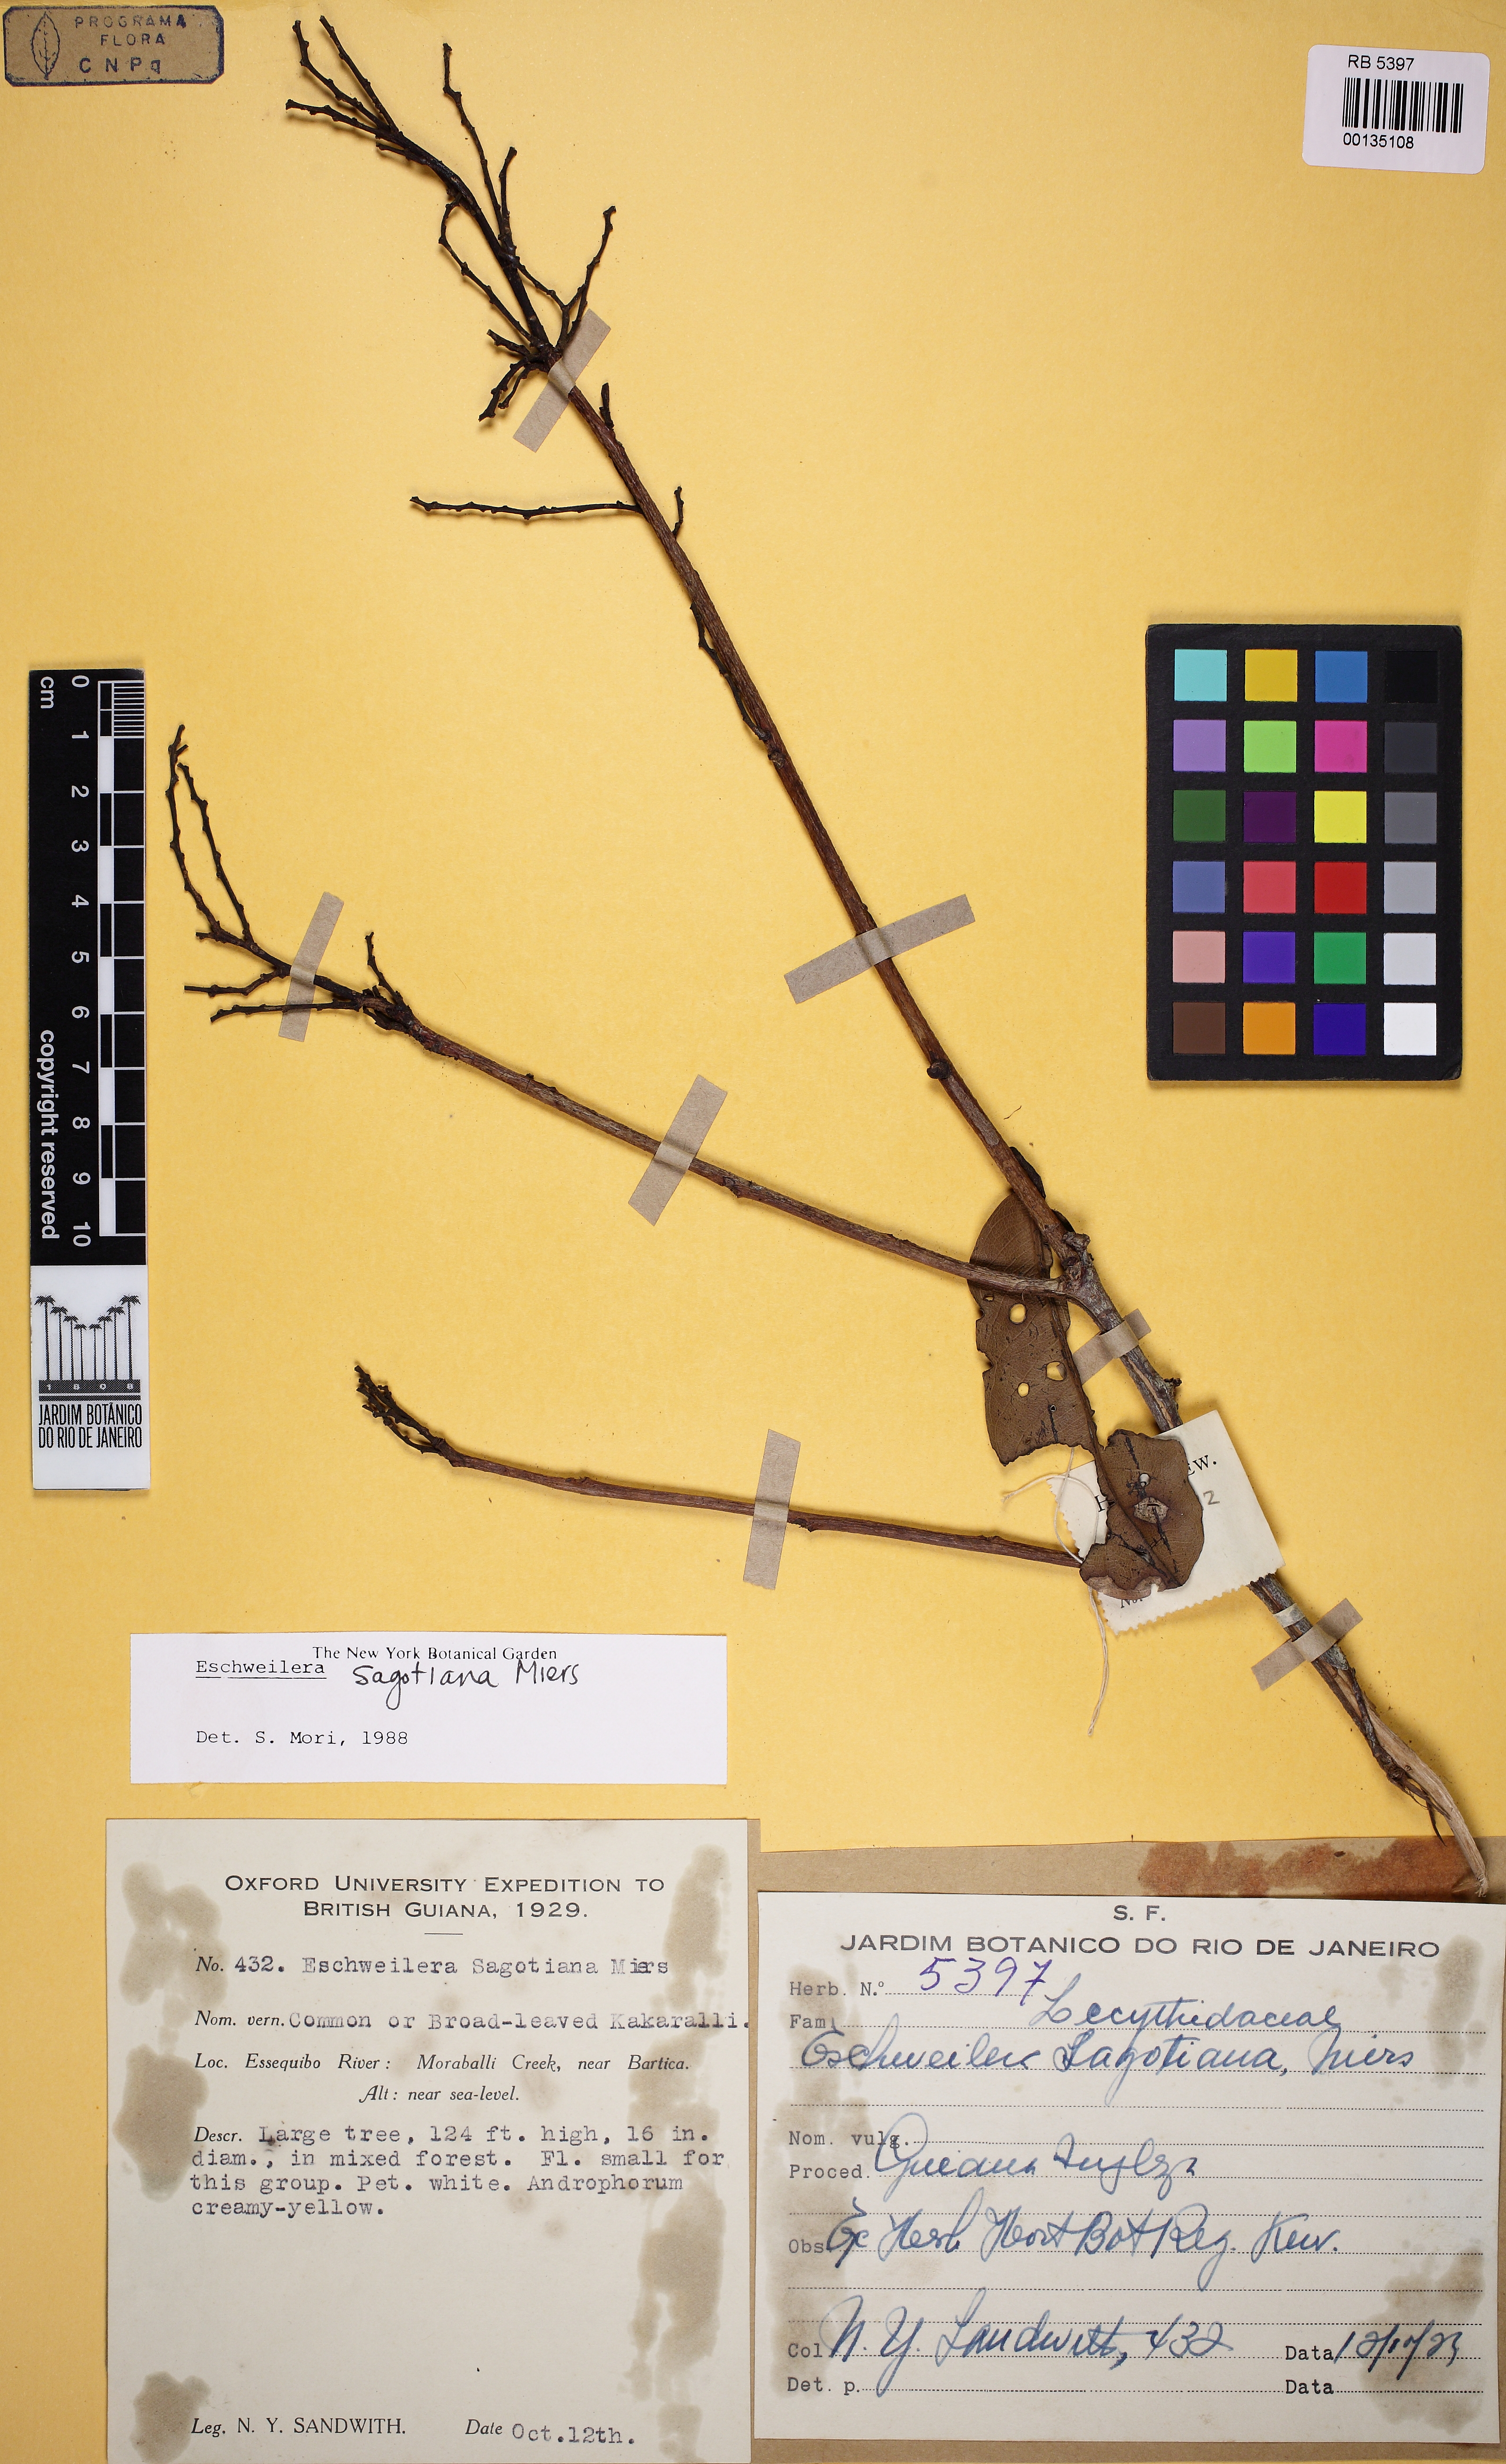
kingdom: Plantae
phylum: Tracheophyta
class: Magnoliopsida
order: Ericales
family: Lecythidaceae
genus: Eschweilera
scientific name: Eschweilera sagotiana
